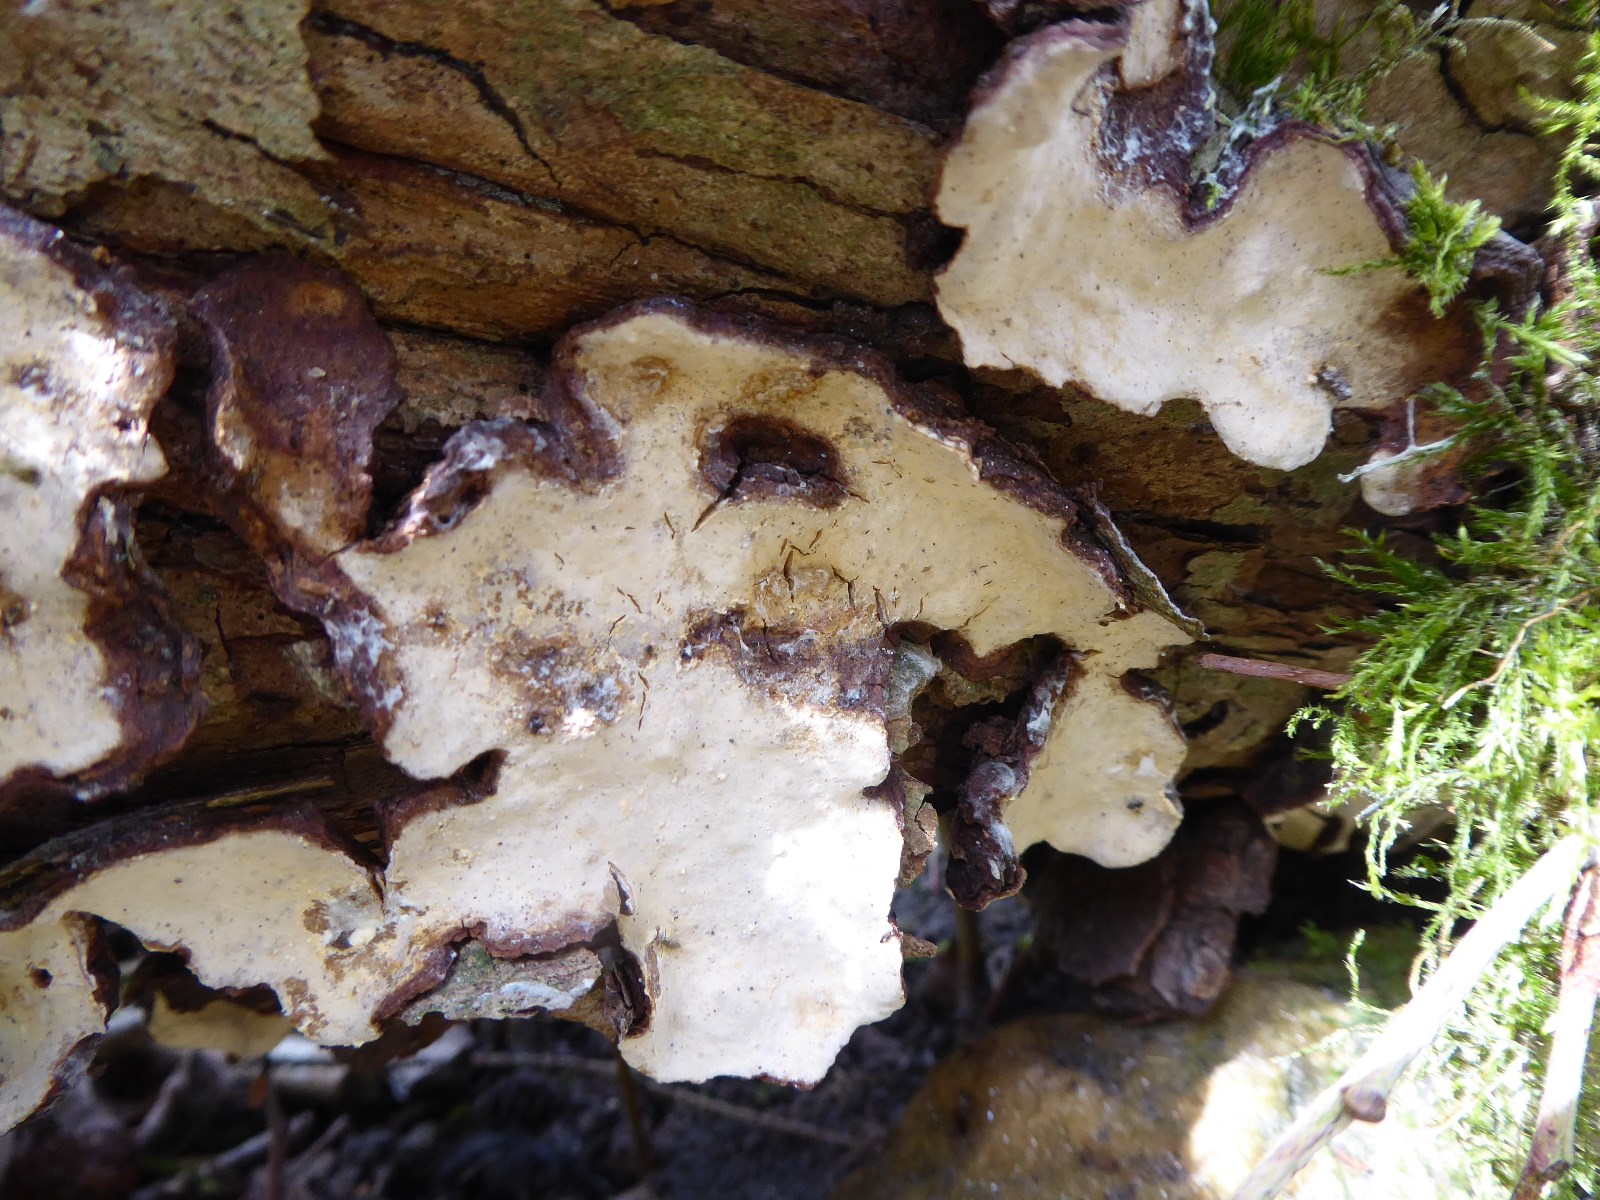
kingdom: Fungi
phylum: Basidiomycota
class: Agaricomycetes
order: Russulales
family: Stereaceae
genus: Stereum
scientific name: Stereum rugosum
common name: rynket lædersvamp
